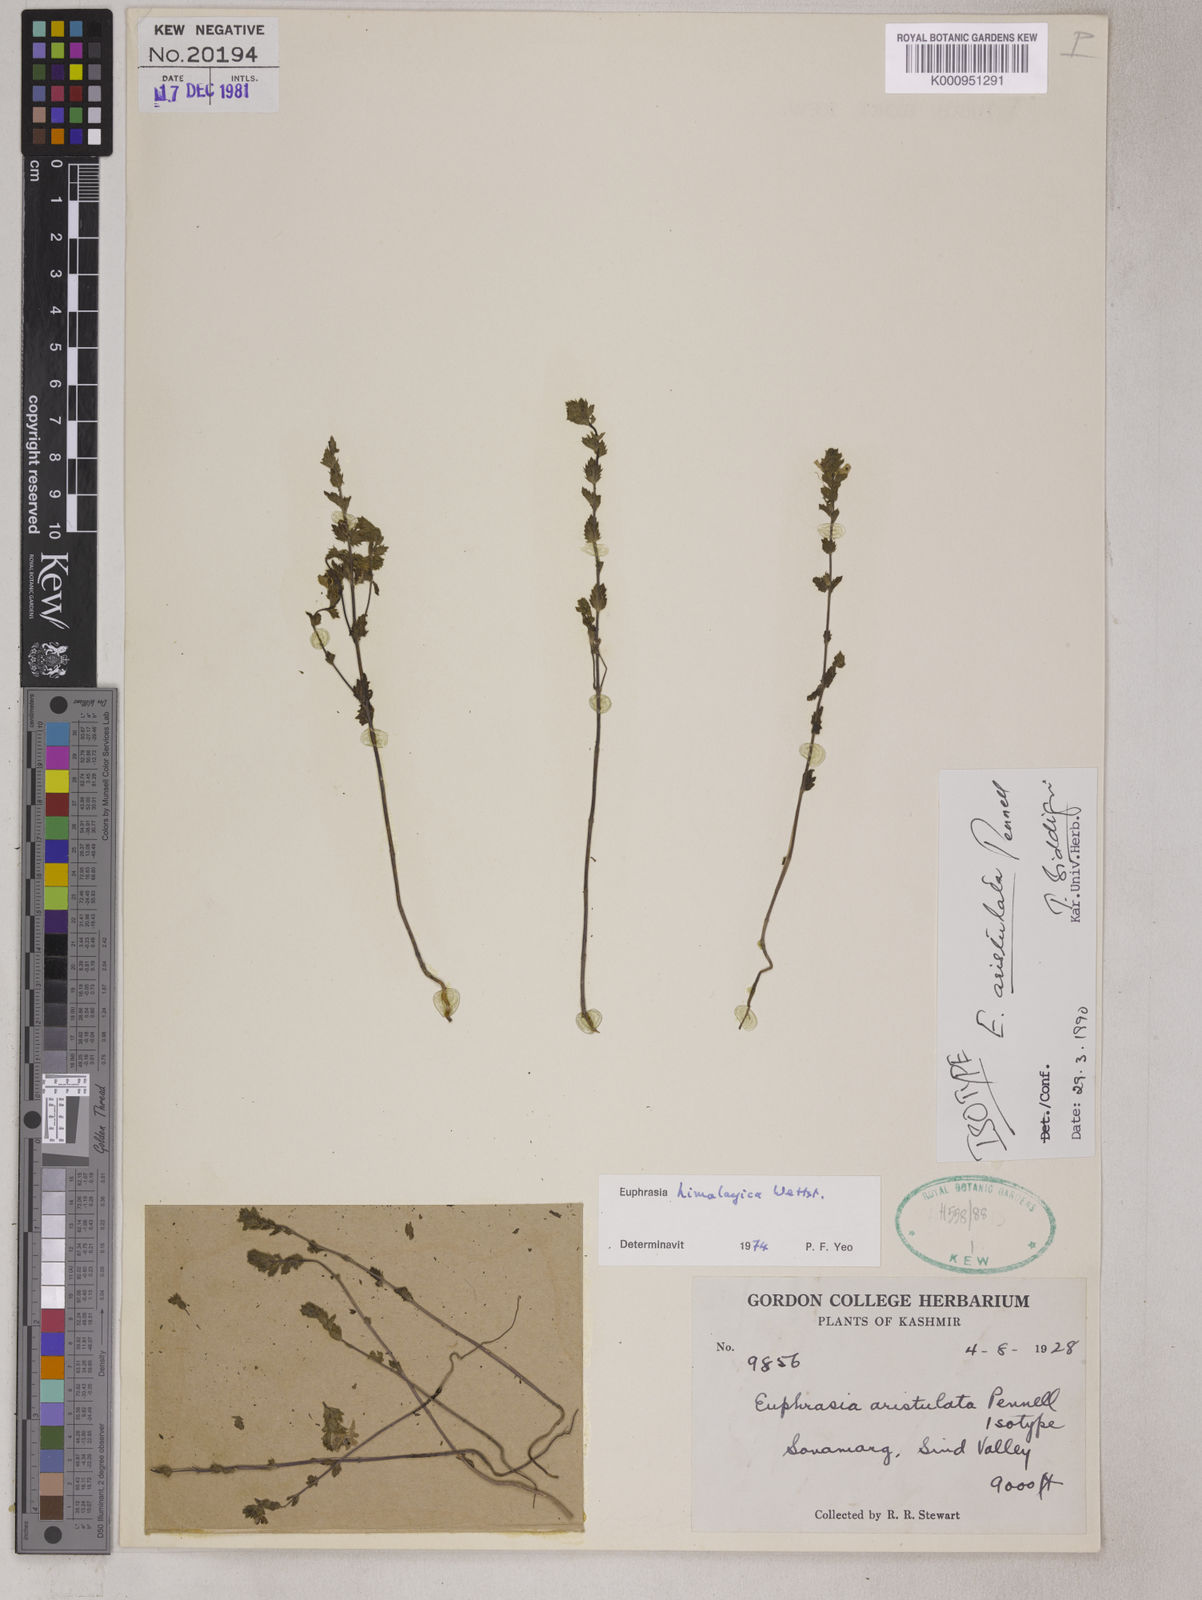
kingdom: Plantae
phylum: Tracheophyta
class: Magnoliopsida
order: Lamiales
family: Orobanchaceae
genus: Euphrasia
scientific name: Euphrasia aristulata
